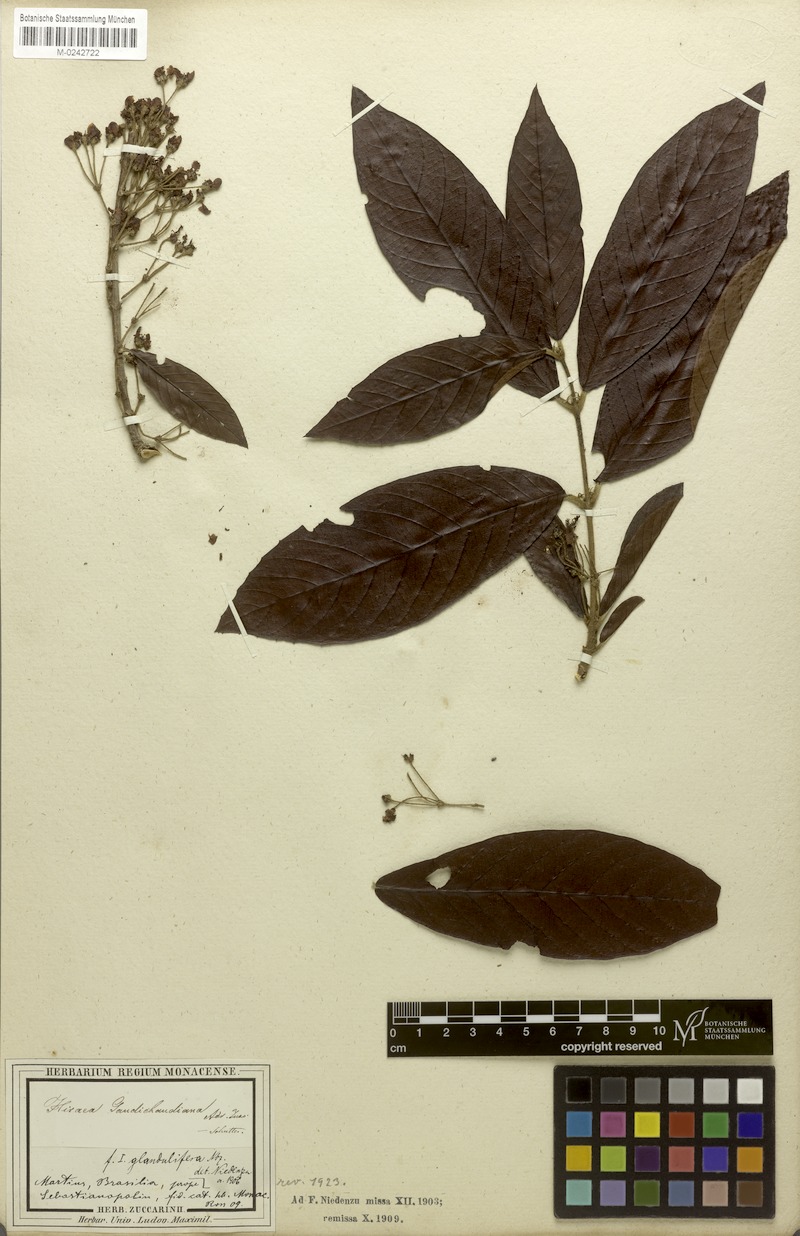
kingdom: Plantae
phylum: Tracheophyta
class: Magnoliopsida
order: Malpighiales
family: Malpighiaceae
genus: Hiraea
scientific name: Hiraea gaudichaudiana
